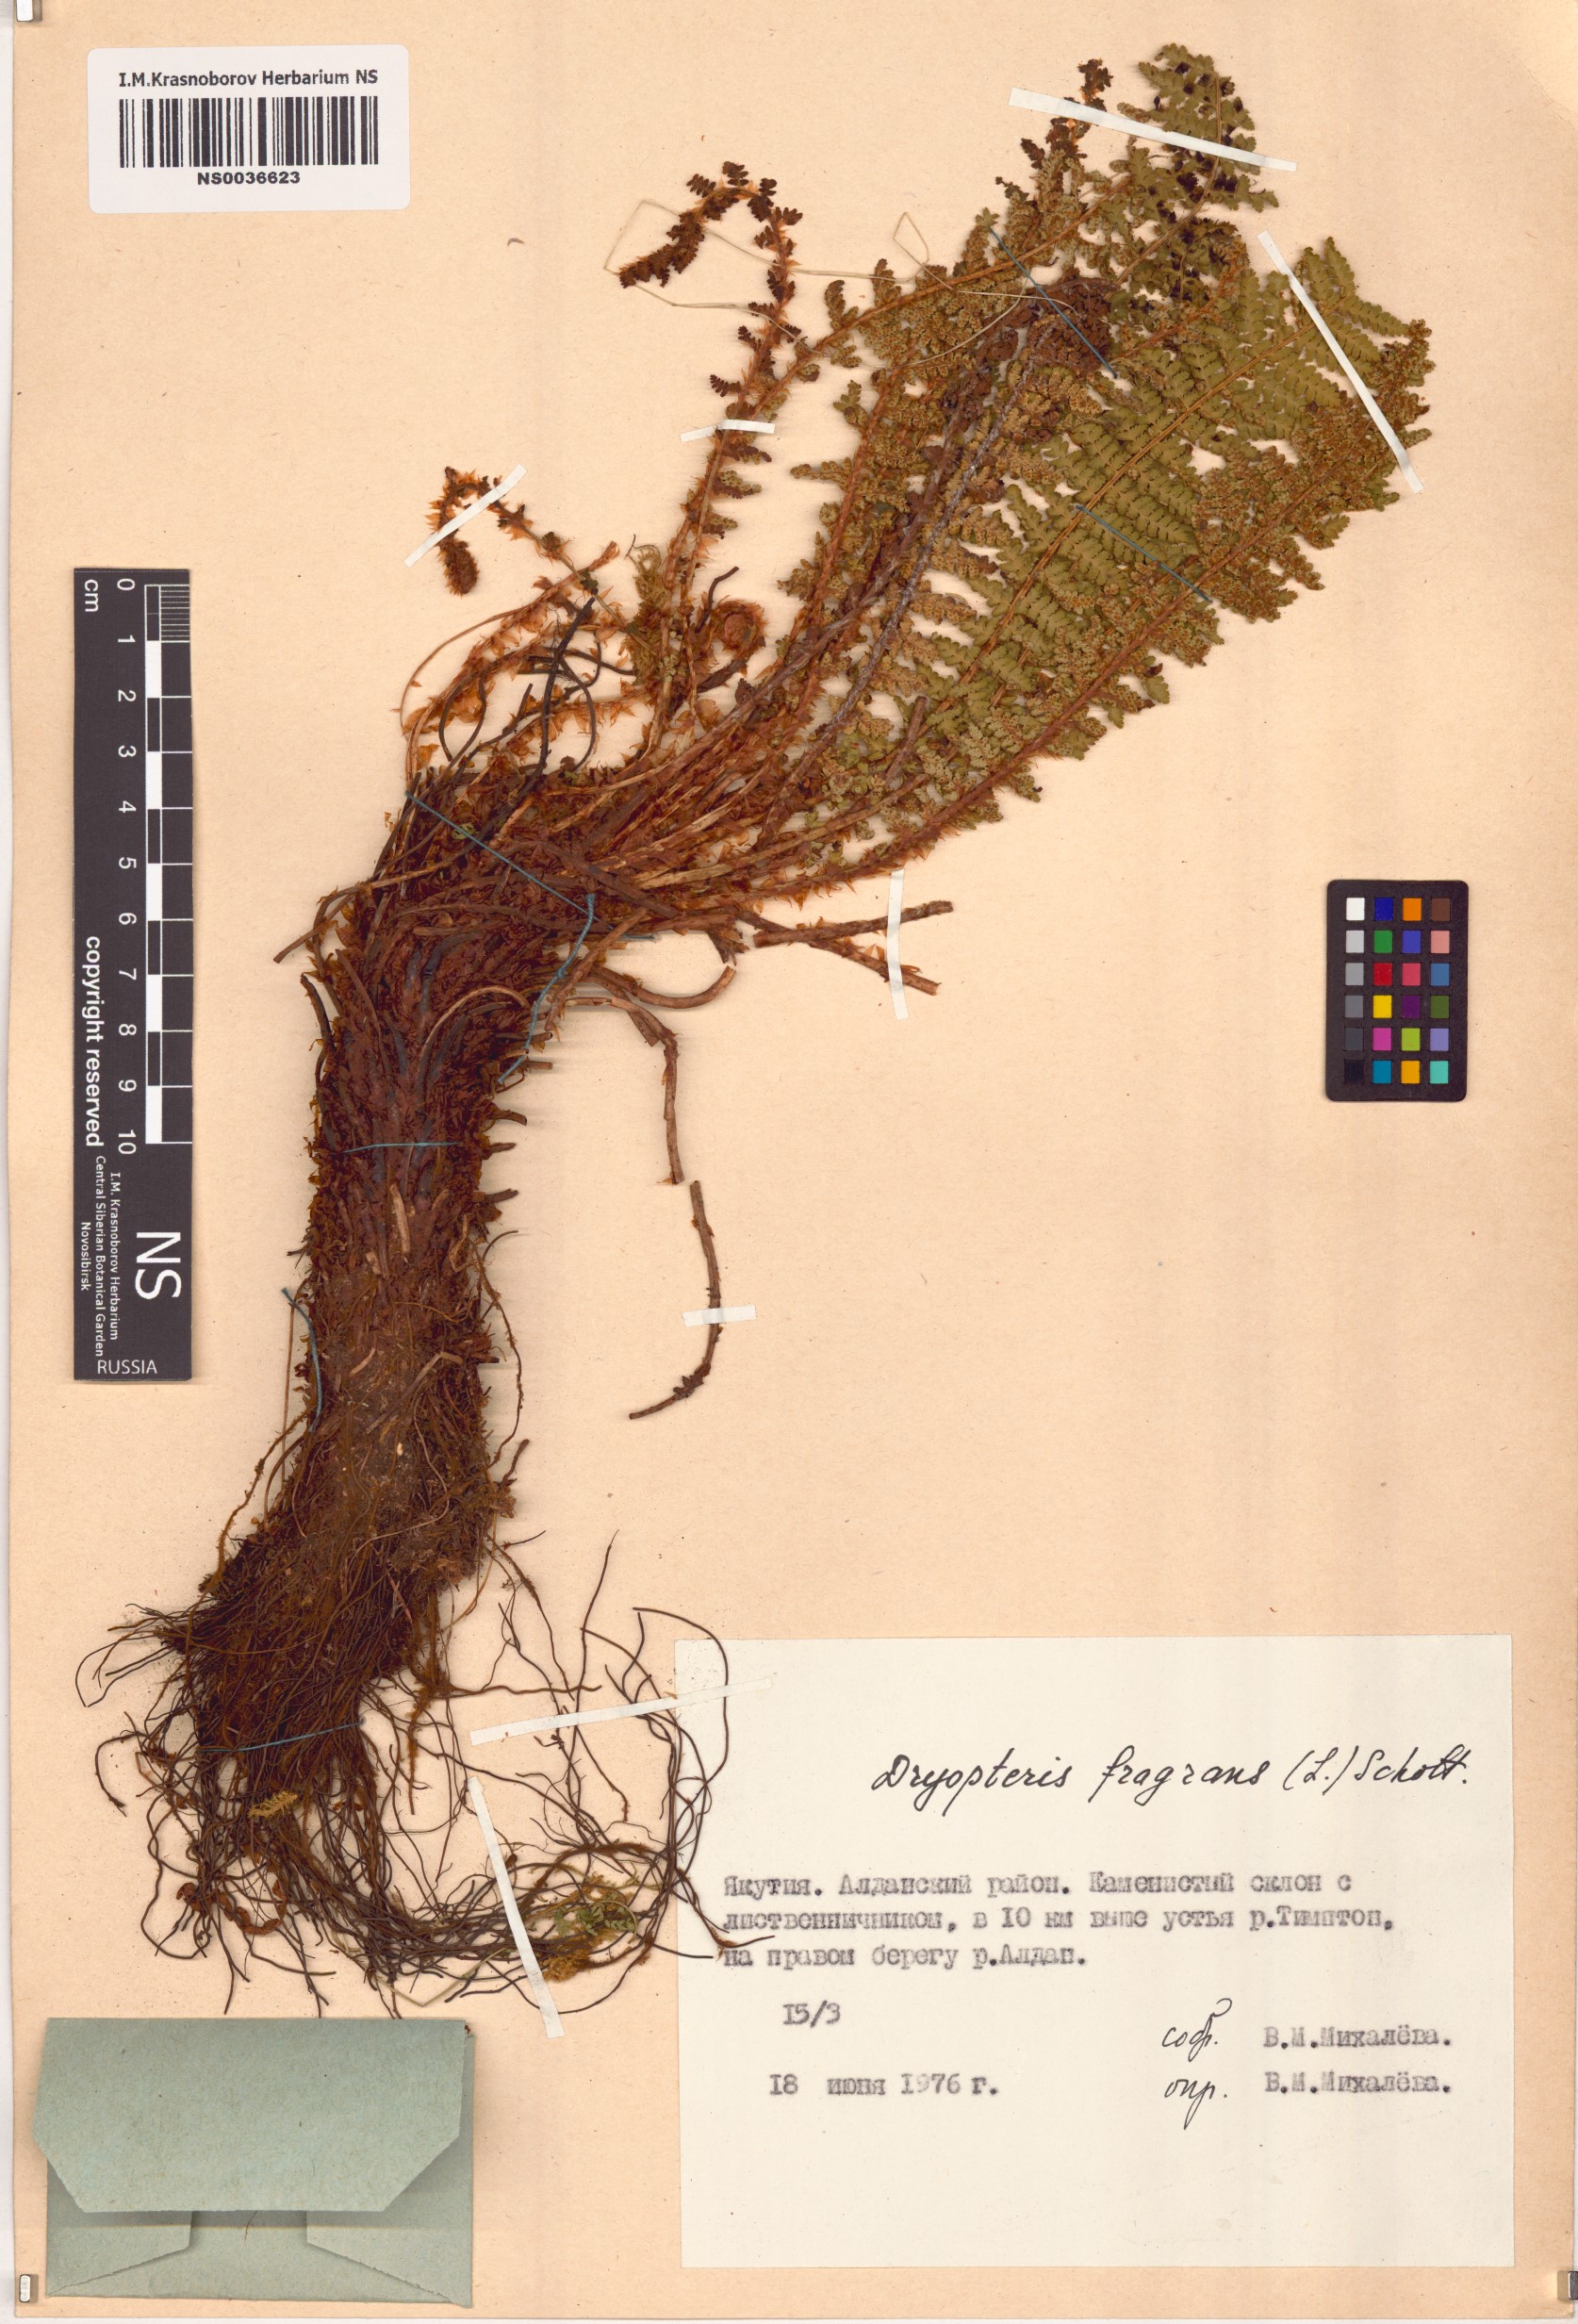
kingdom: Plantae
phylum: Tracheophyta
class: Polypodiopsida
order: Polypodiales
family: Dryopteridaceae
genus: Dryopteris
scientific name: Dryopteris fragrans
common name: Fragrant wood fern
